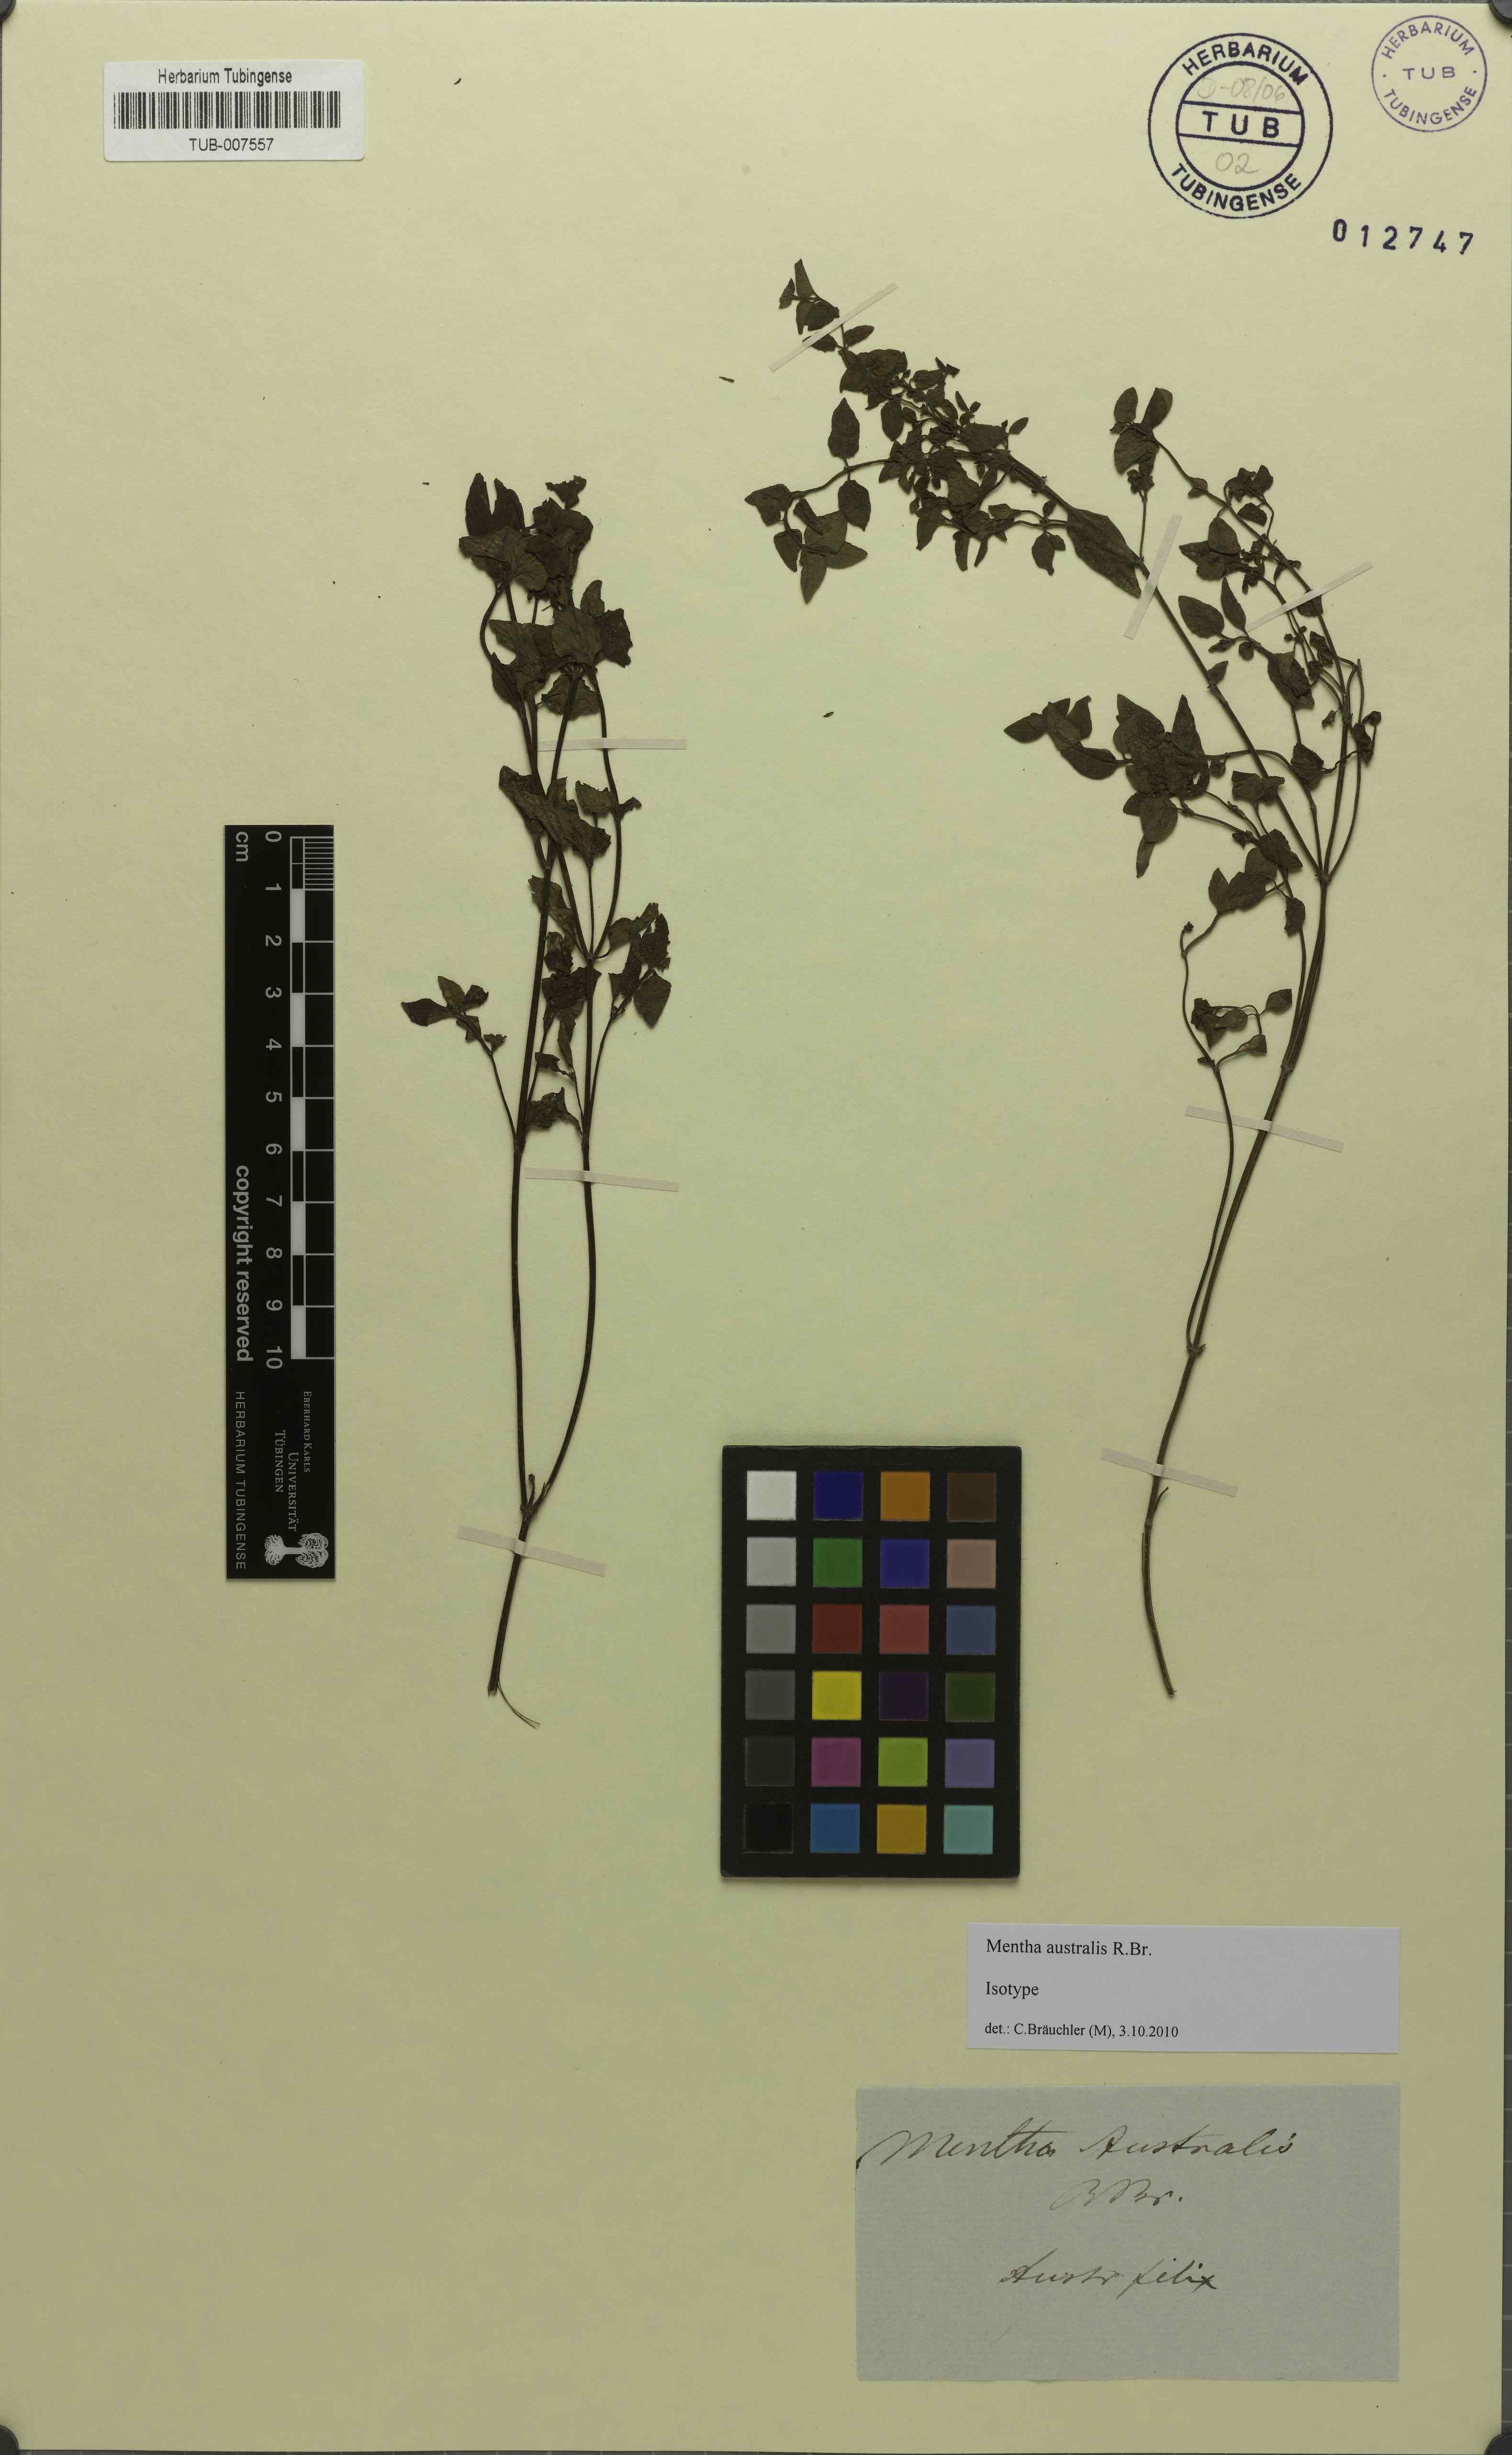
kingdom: Plantae
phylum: Tracheophyta
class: Magnoliopsida
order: Lamiales
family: Lamiaceae
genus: Mentha
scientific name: Mentha australis
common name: Australian mint
